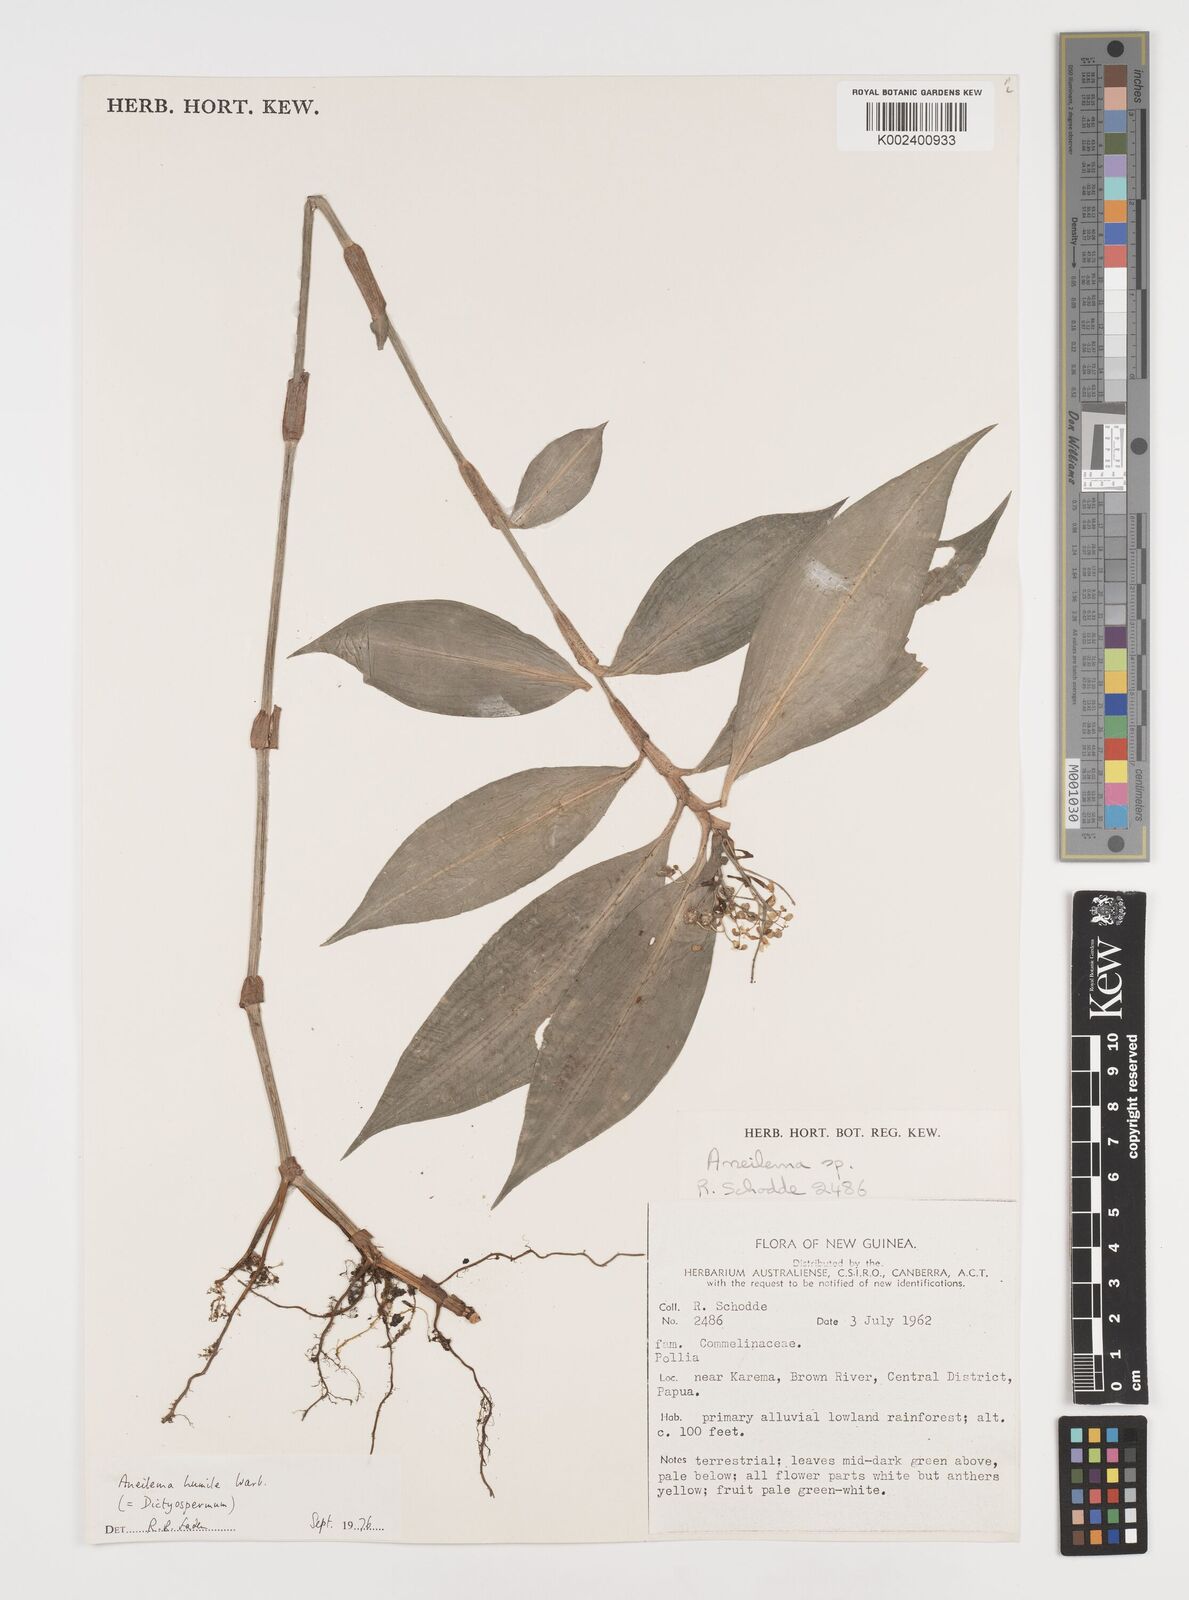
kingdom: Plantae
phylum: Tracheophyta
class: Liliopsida
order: Commelinales
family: Commelinaceae
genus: Dictyospermum
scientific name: Dictyospermum humile
